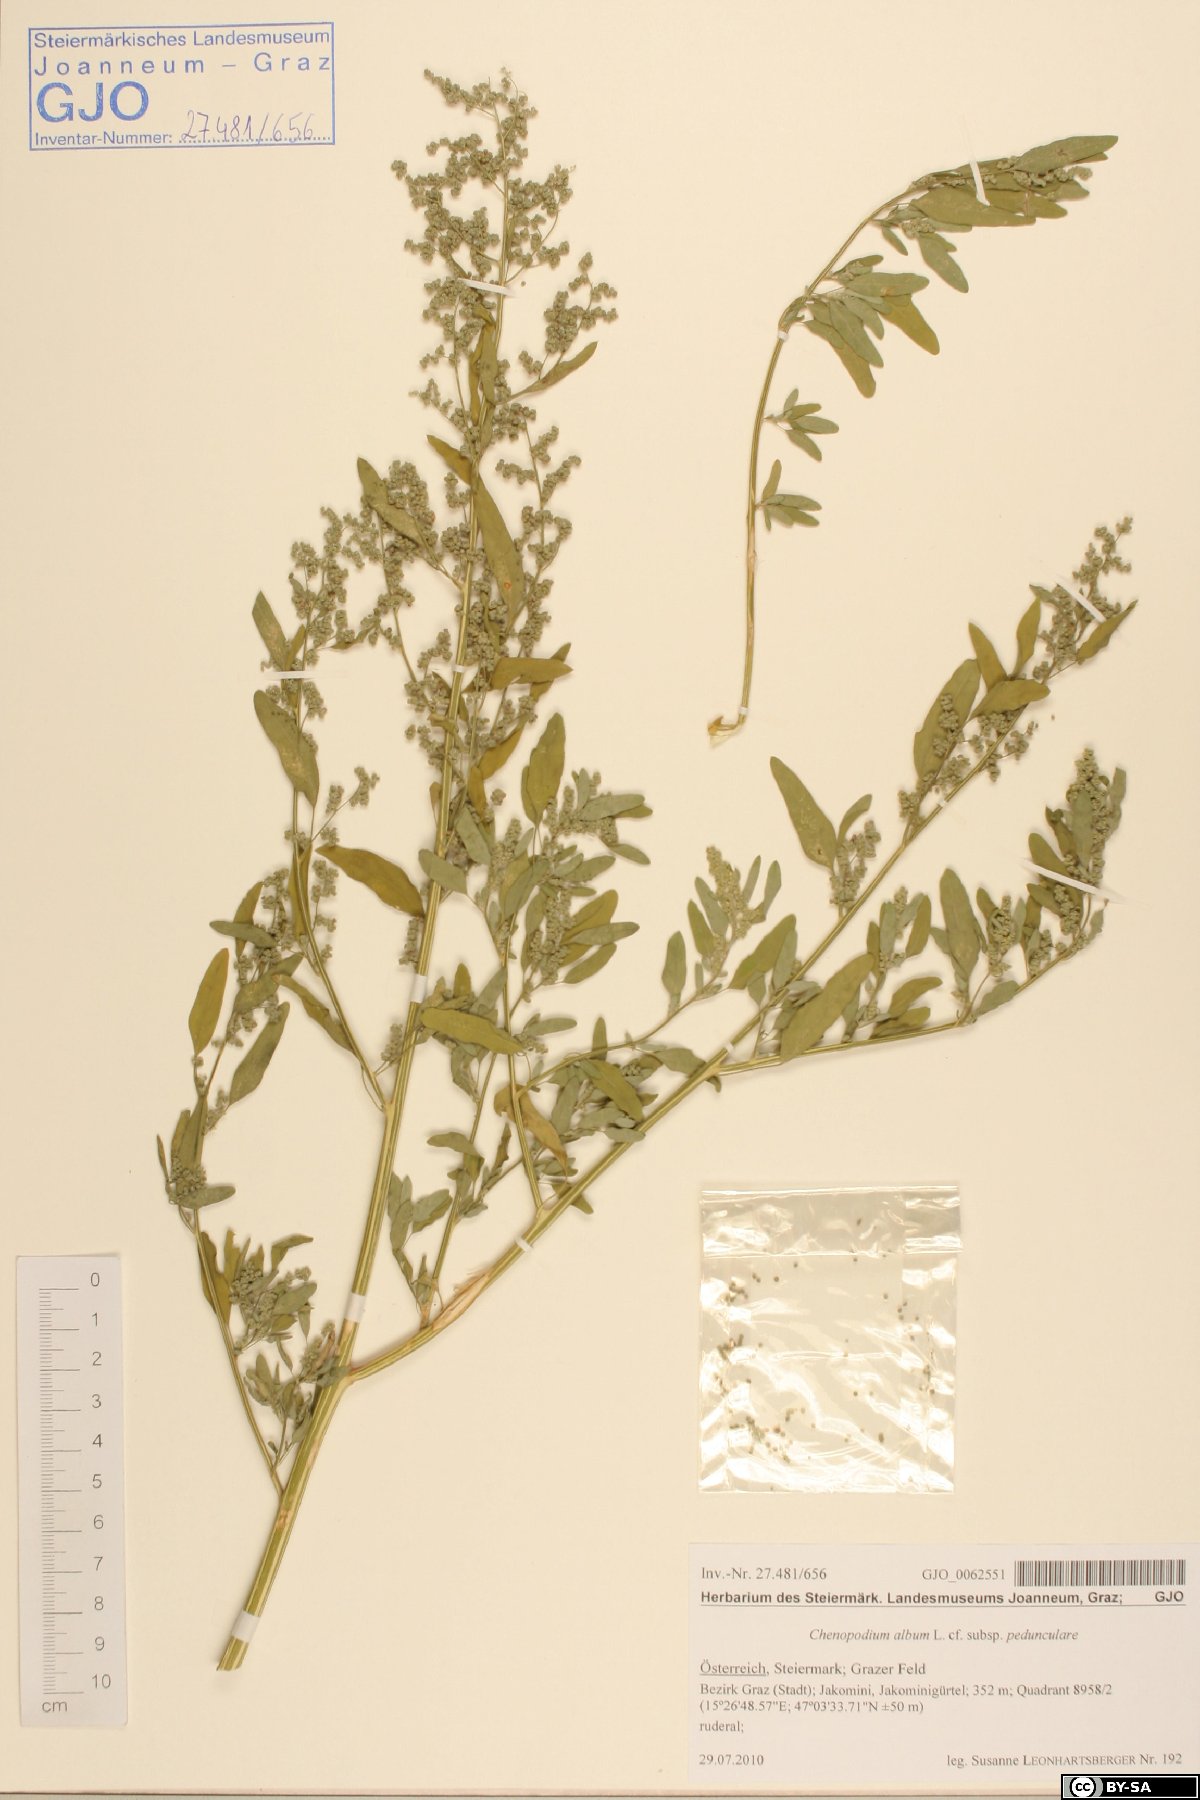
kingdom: Plantae
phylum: Tracheophyta
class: Magnoliopsida
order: Caryophyllales
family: Amaranthaceae
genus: Chenopodium
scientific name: Chenopodium album
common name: Fat-hen
